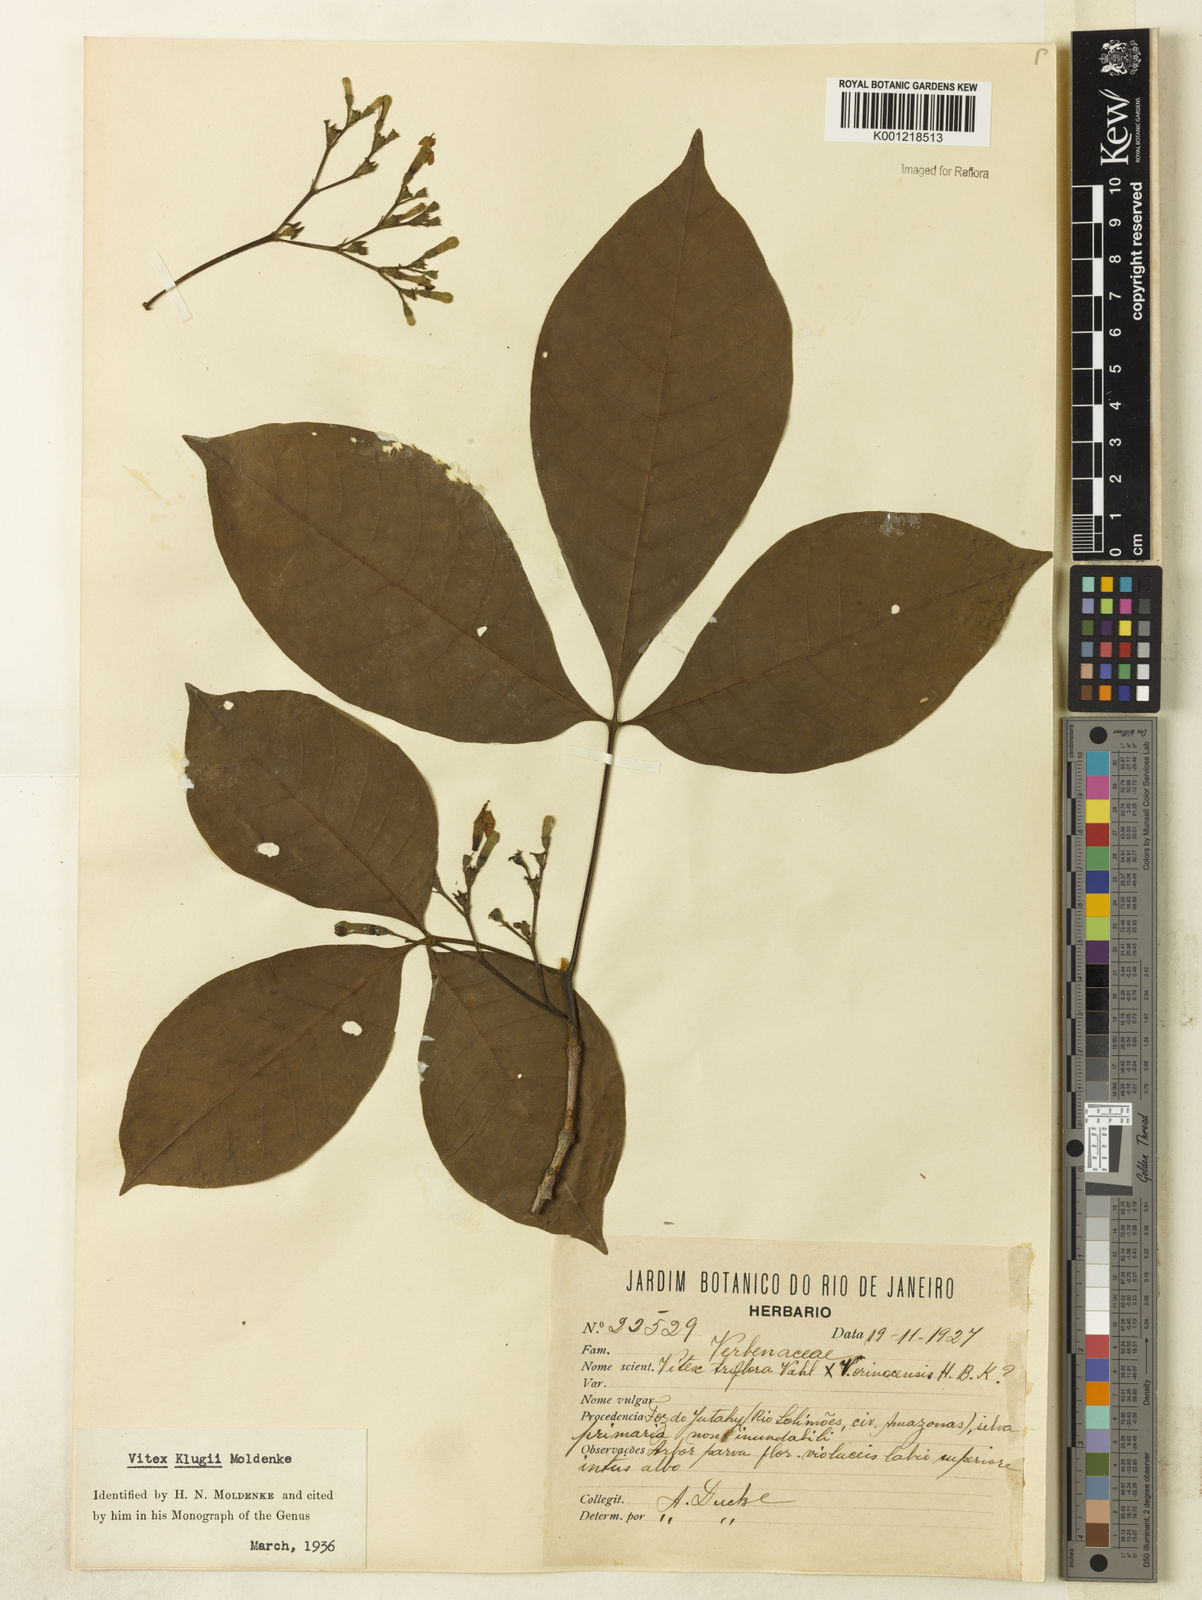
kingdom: Plantae
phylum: Tracheophyta
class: Magnoliopsida
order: Lamiales
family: Lamiaceae
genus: Vitex
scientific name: Vitex klugii
